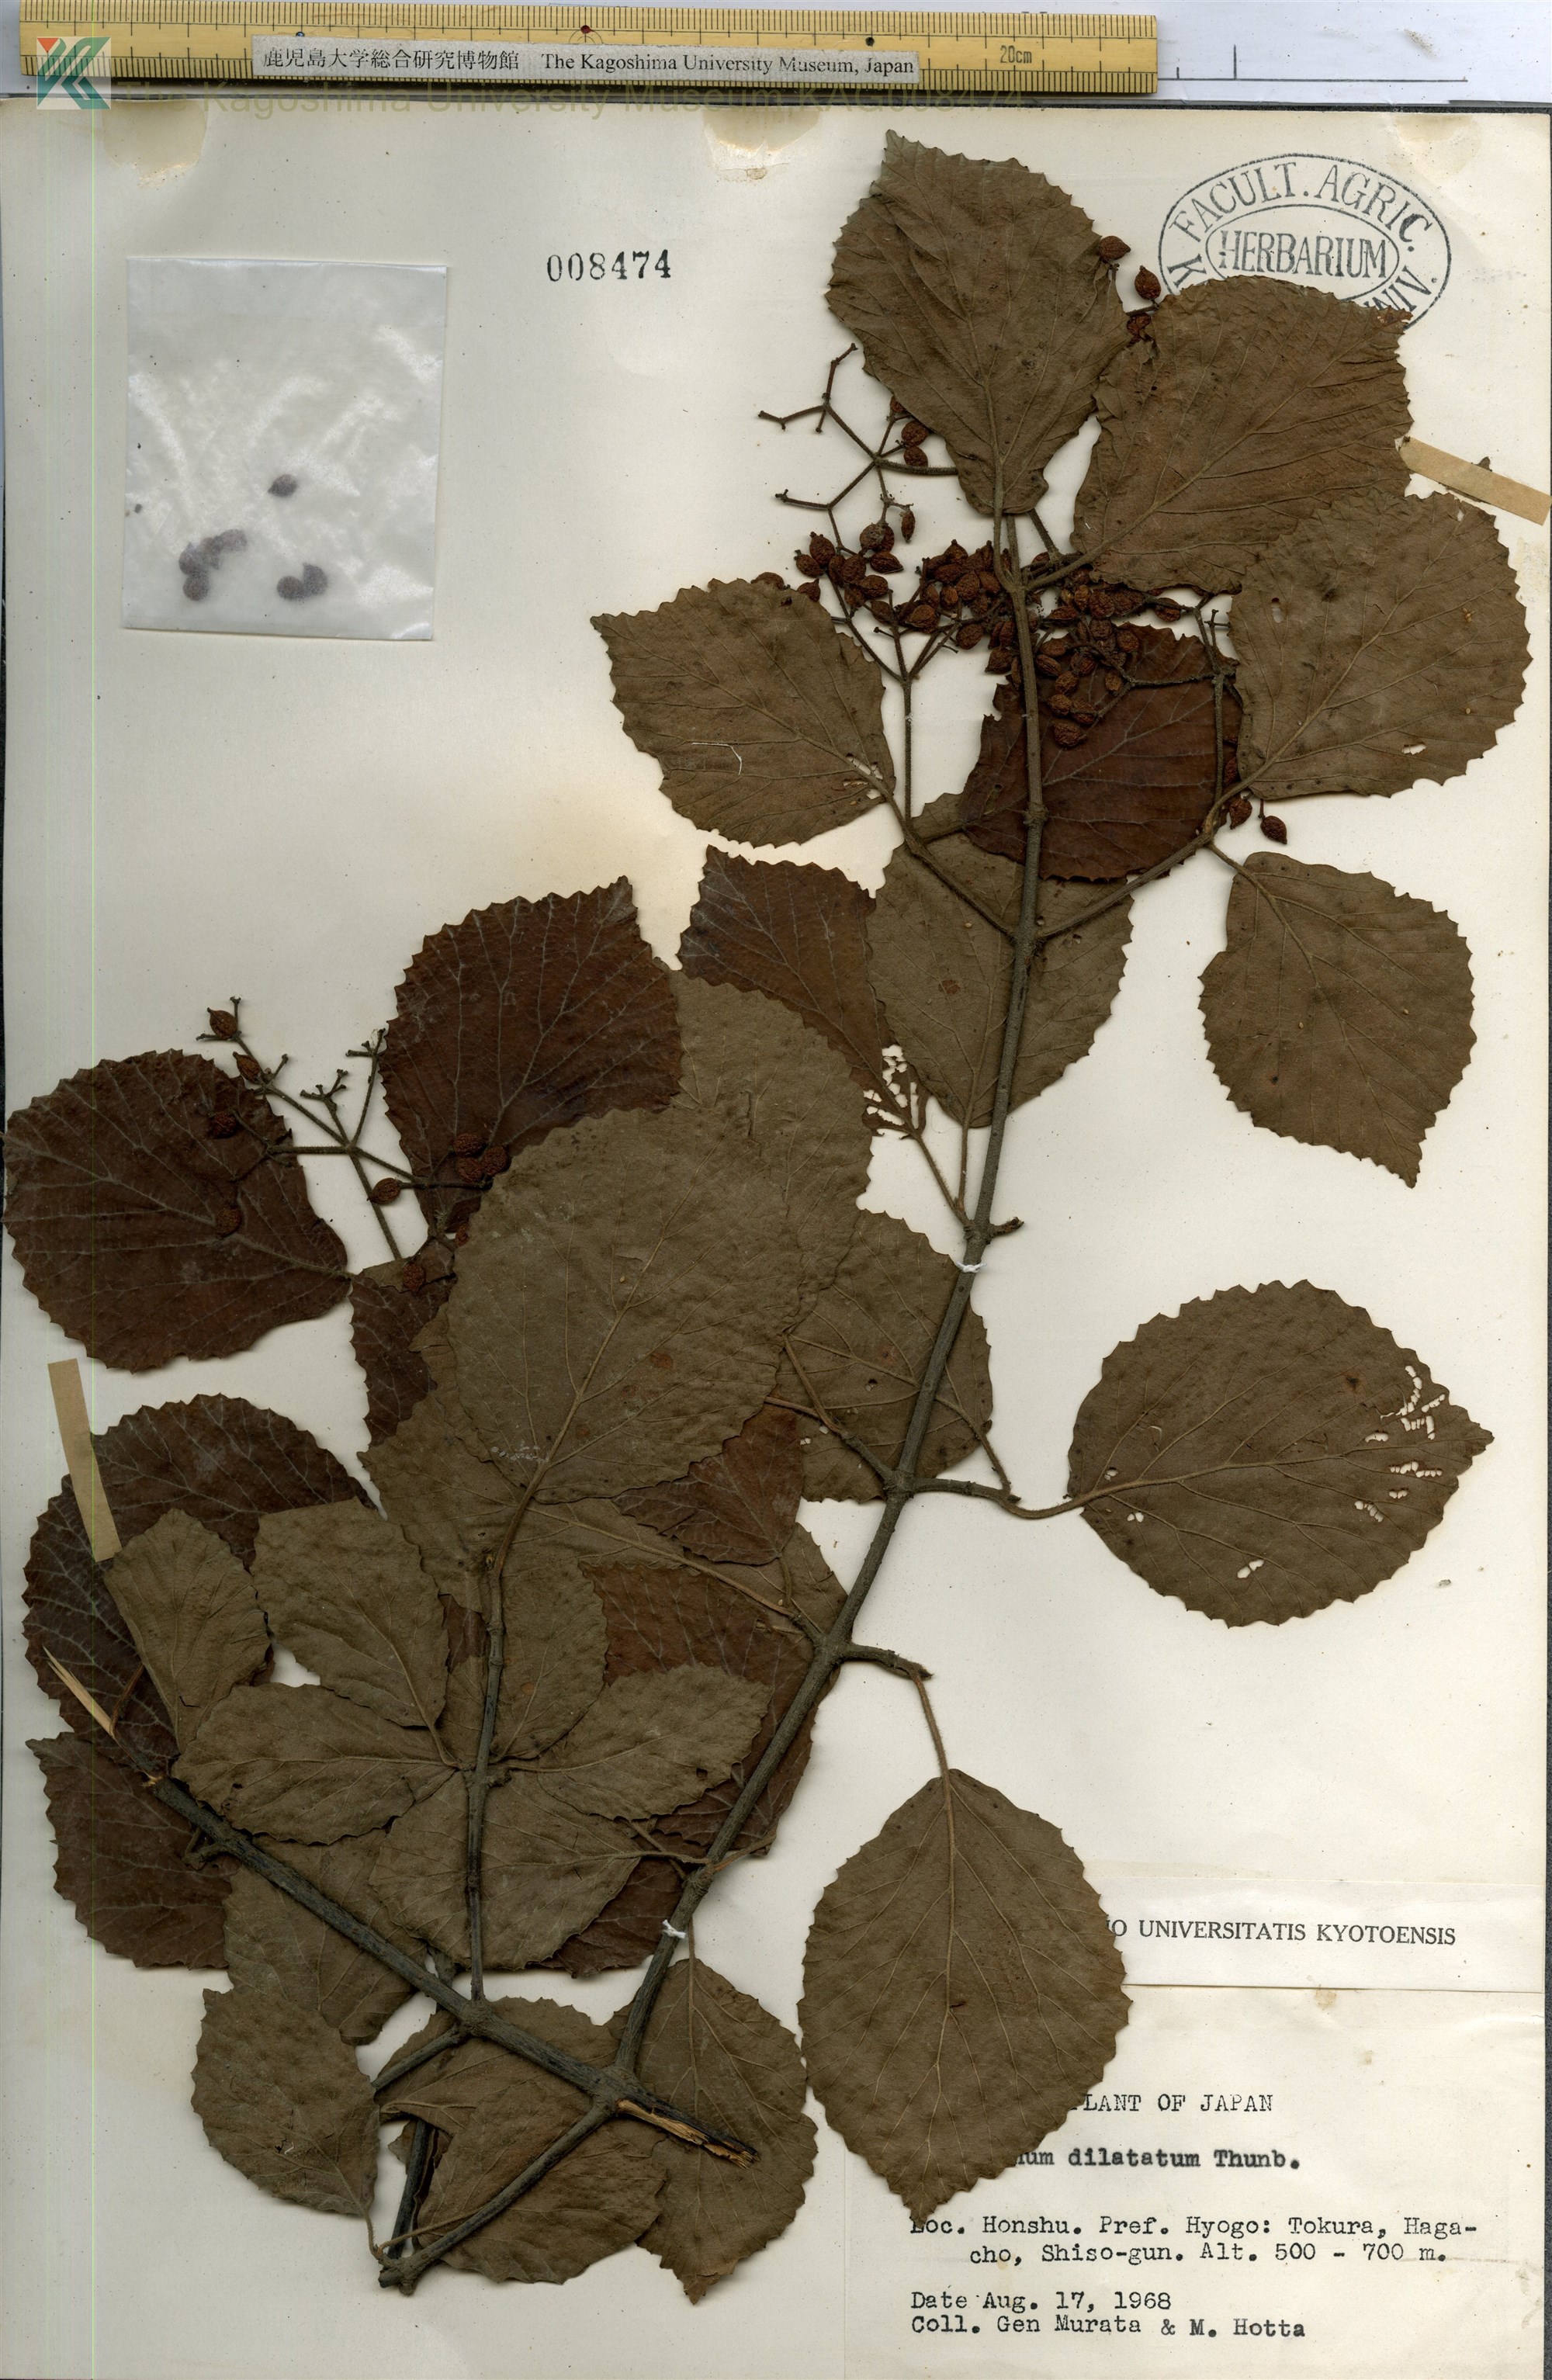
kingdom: Plantae
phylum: Tracheophyta
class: Magnoliopsida
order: Dipsacales
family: Viburnaceae
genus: Viburnum
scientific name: Viburnum dilatatum
